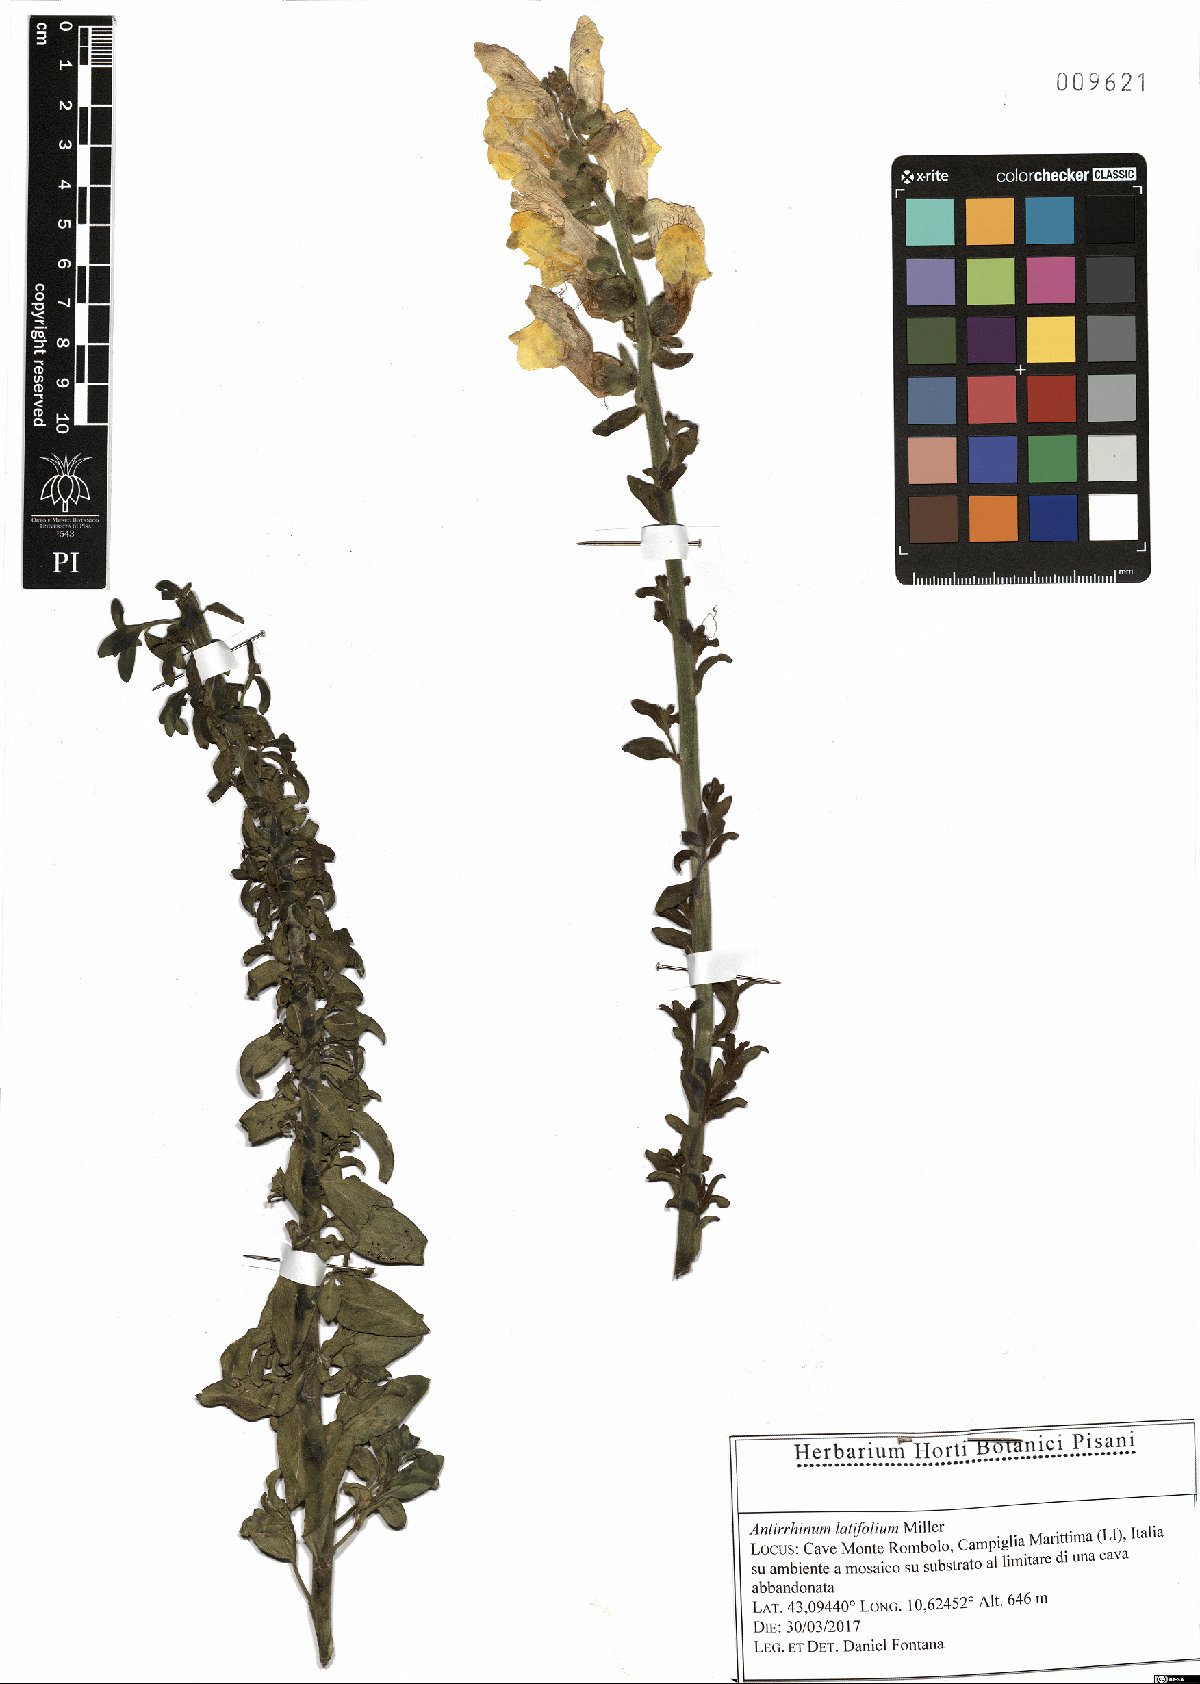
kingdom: Plantae
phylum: Tracheophyta
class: Magnoliopsida
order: Lamiales
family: Plantaginaceae
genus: Antirrhinum
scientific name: Antirrhinum latifolium
